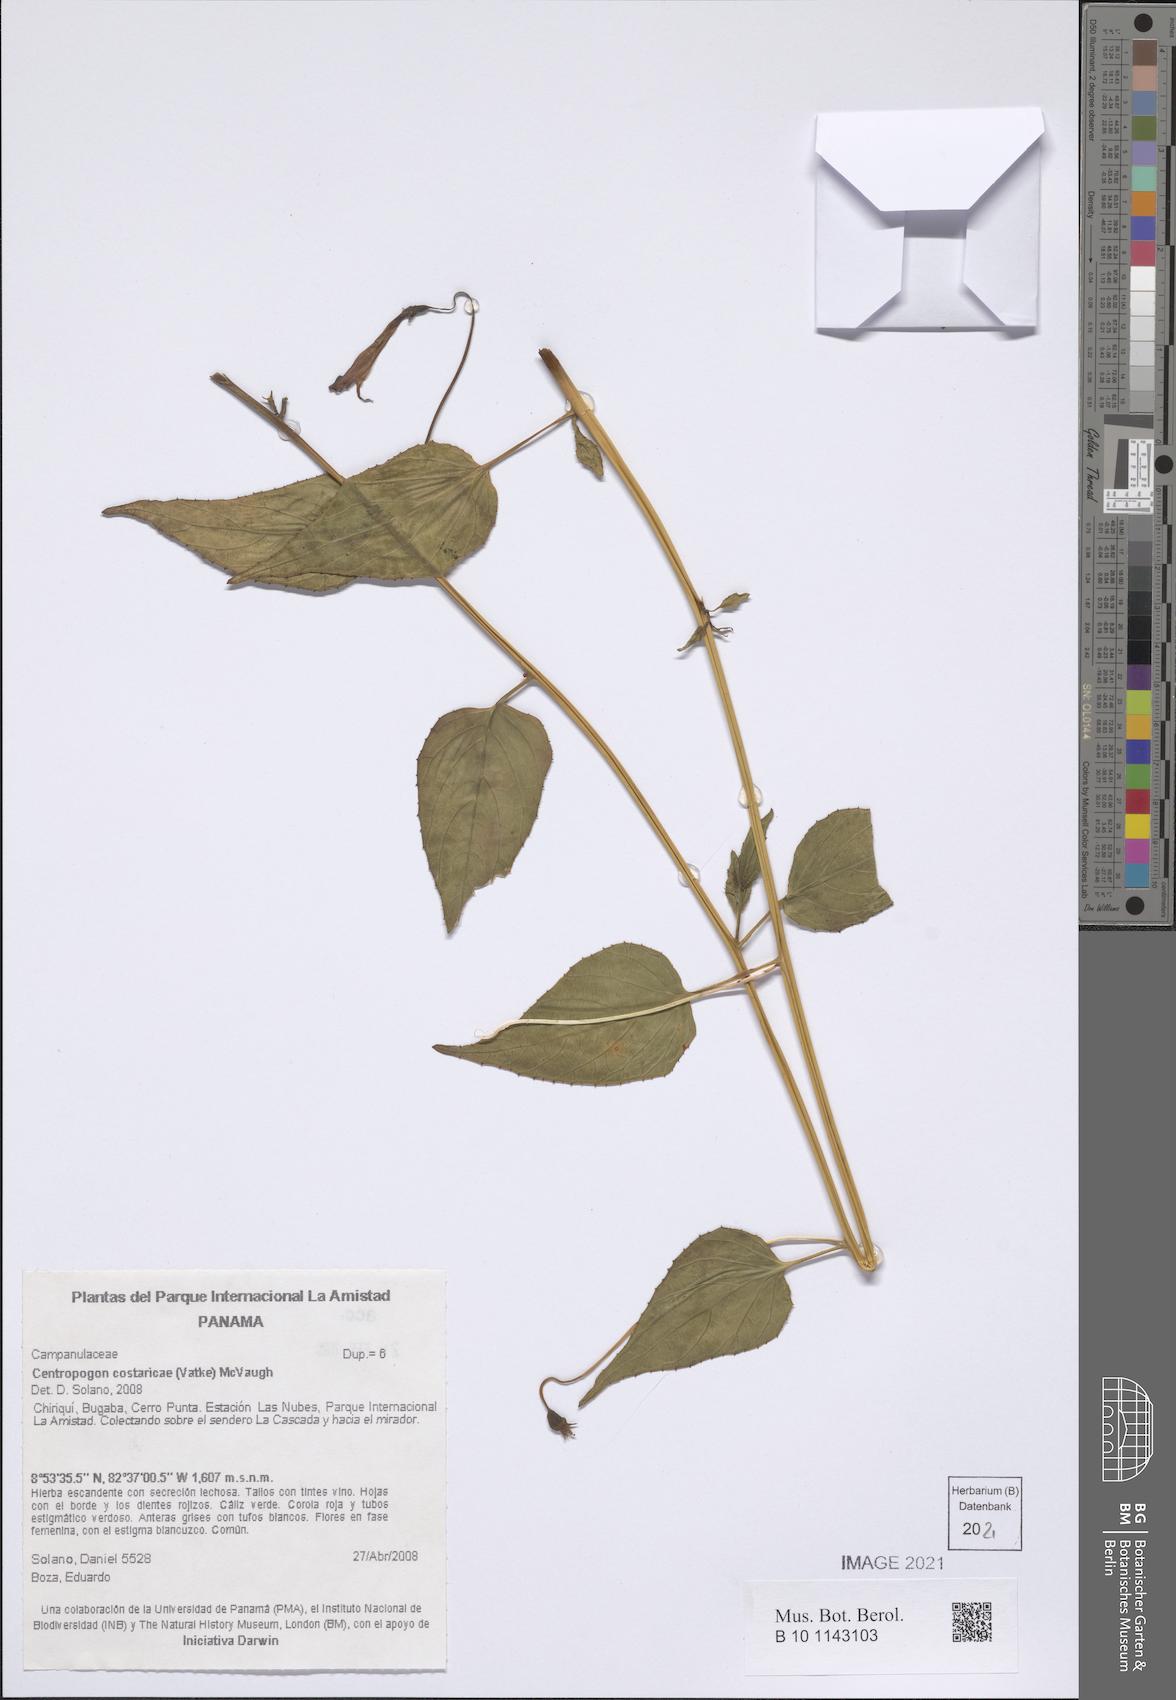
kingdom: Plantae
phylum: Tracheophyta
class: Magnoliopsida
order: Asterales
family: Campanulaceae
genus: Centropogon
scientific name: Centropogon costaricae
